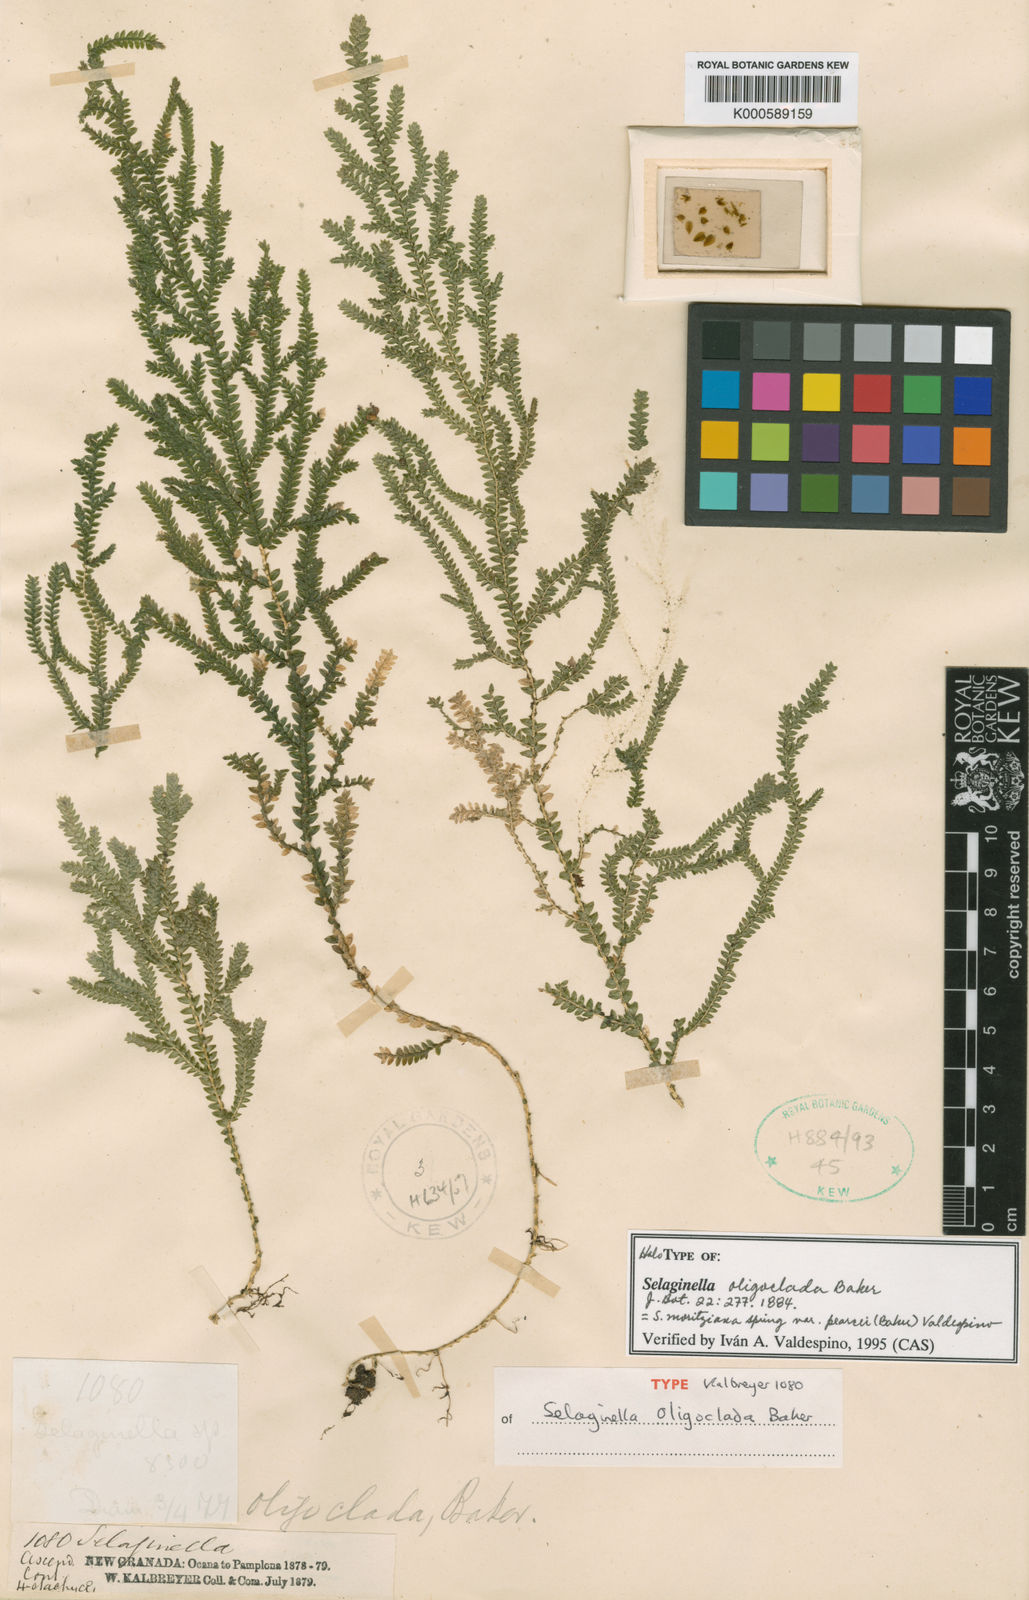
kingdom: Plantae
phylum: Tracheophyta
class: Lycopodiopsida
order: Selaginellales
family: Selaginellaceae
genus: Selaginella
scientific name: Selaginella moritziana
